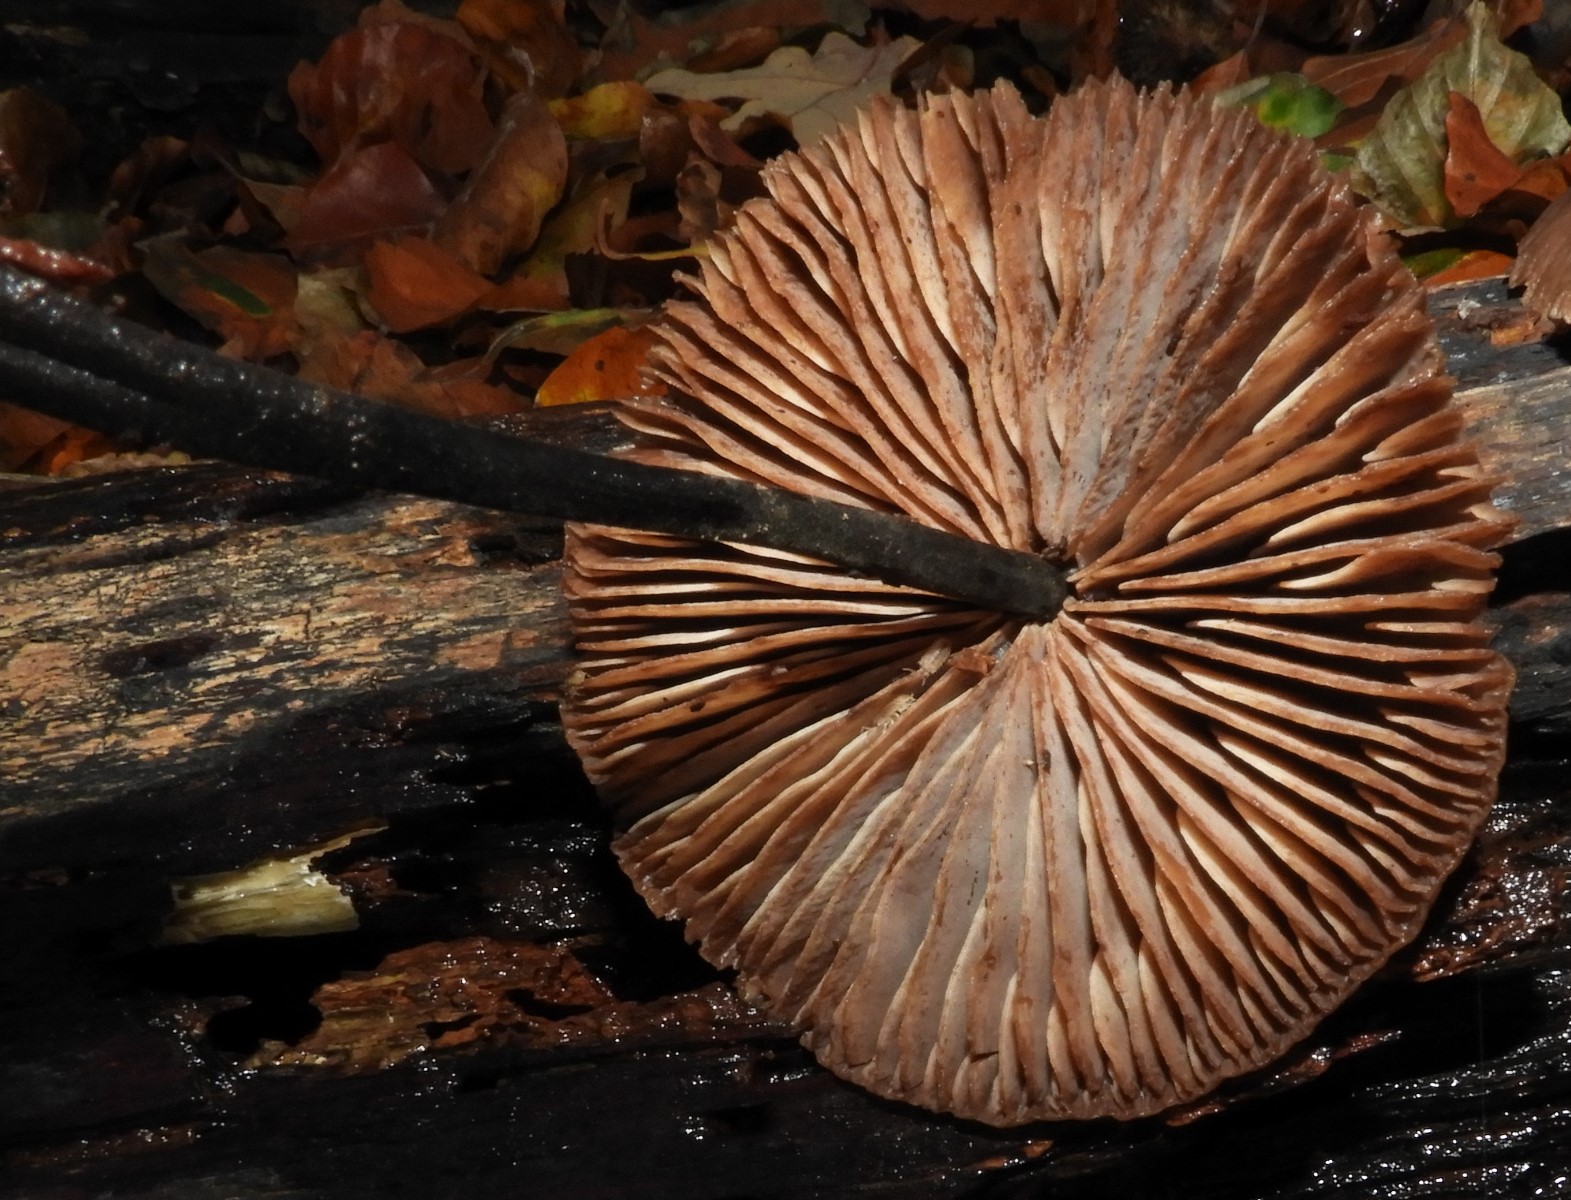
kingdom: Fungi
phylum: Basidiomycota
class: Agaricomycetes
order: Agaricales
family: Omphalotaceae
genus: Mycetinis
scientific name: Mycetinis alliaceus
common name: stor løghat
